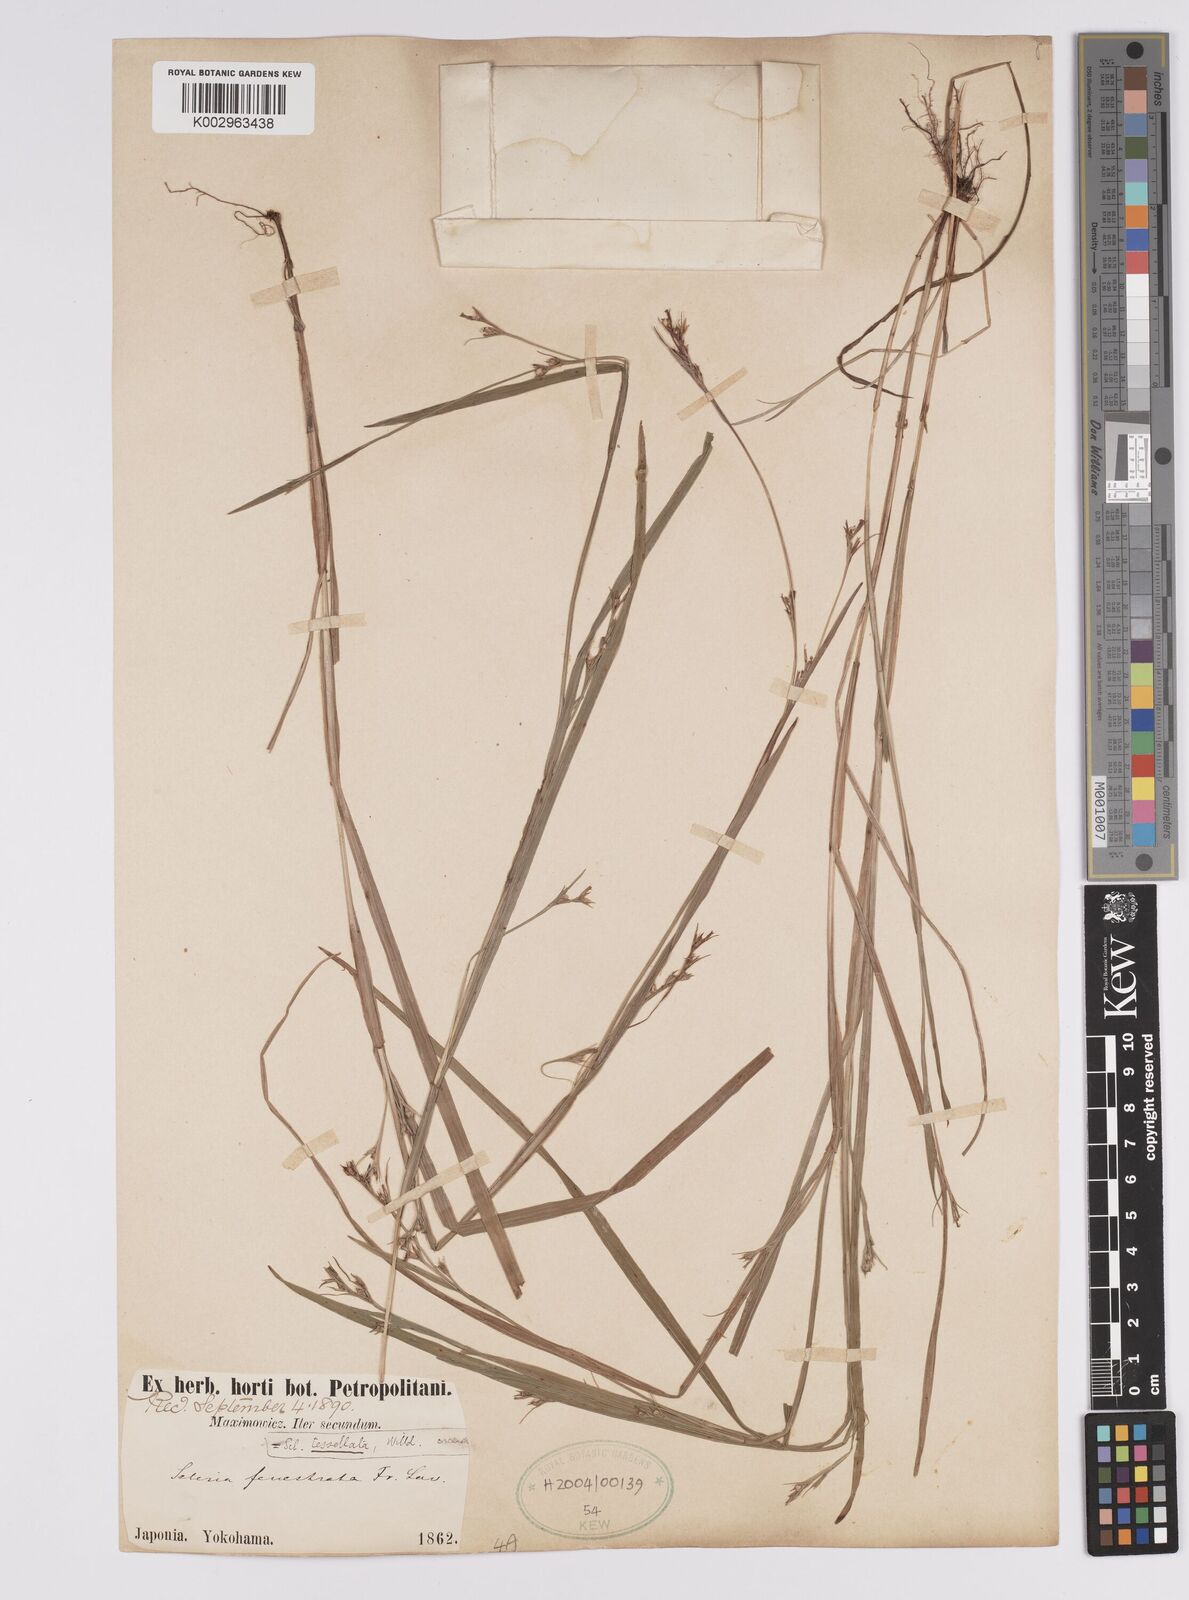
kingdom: Plantae
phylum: Tracheophyta
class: Liliopsida
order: Poales
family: Cyperaceae
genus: Scleria
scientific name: Scleria parvula
